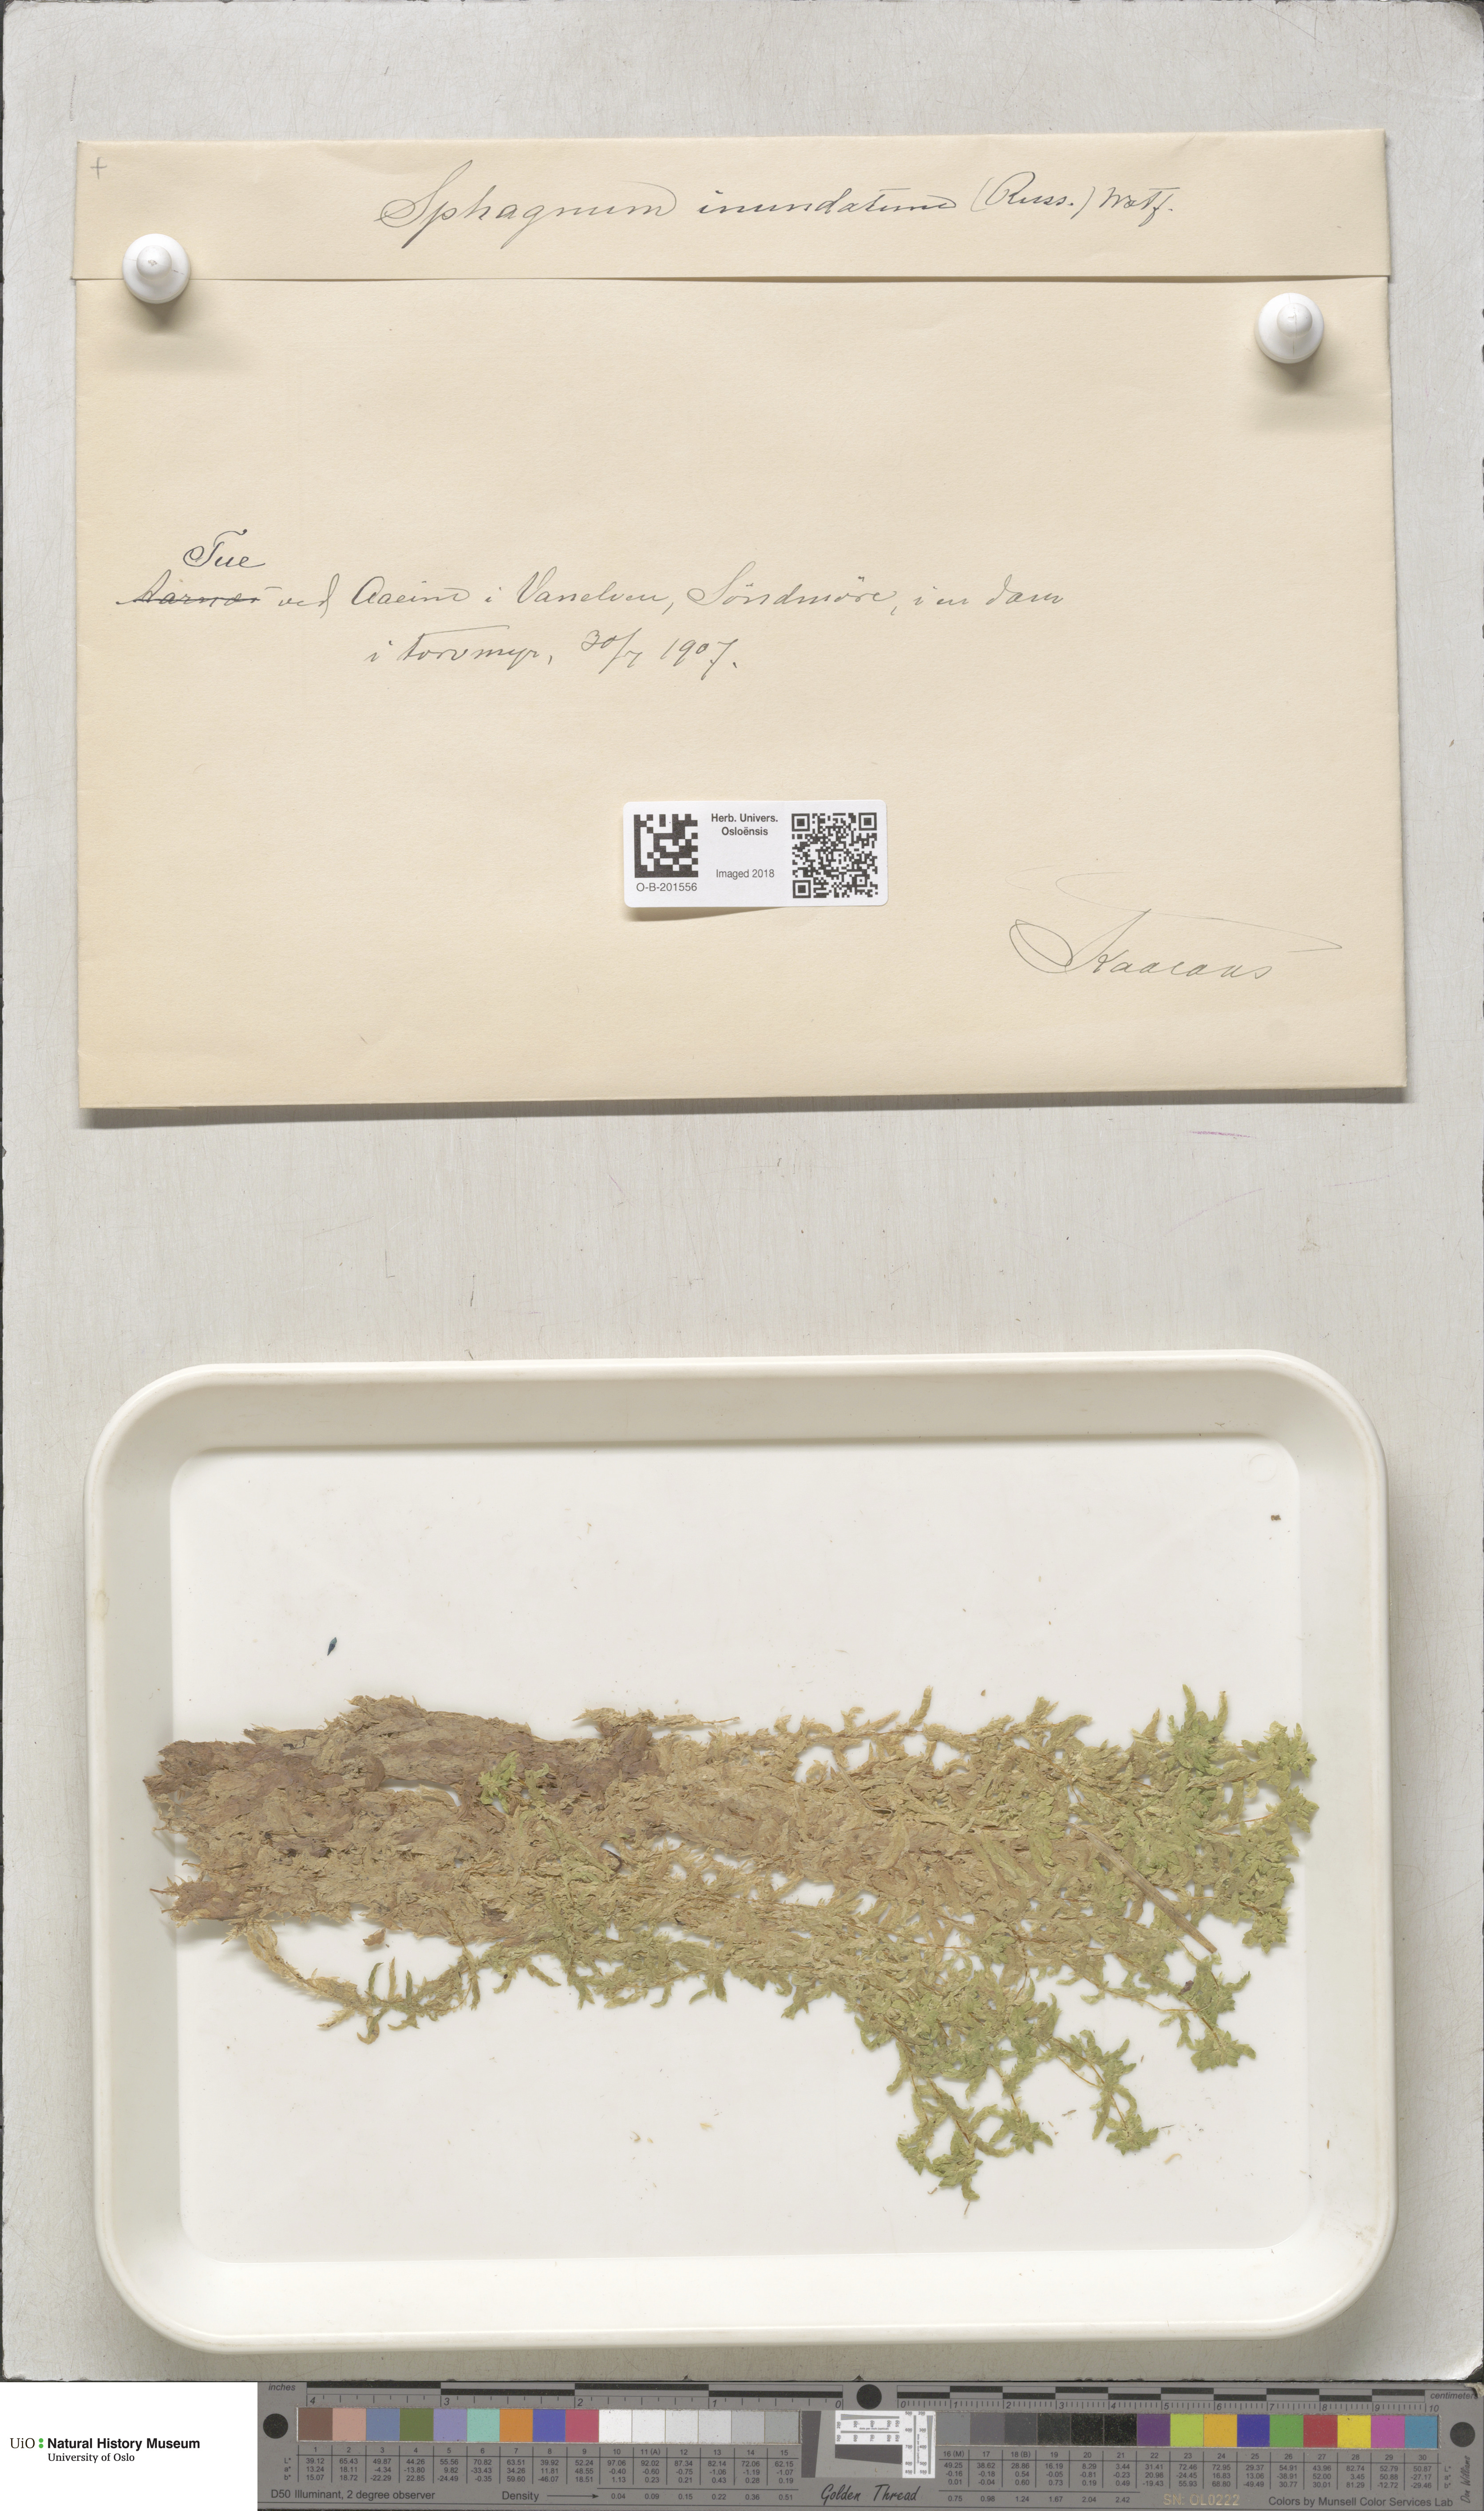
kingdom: Plantae
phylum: Bryophyta
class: Sphagnopsida
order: Sphagnales
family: Sphagnaceae
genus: Sphagnum
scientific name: Sphagnum inundatum
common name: Lesser cow-horn bog-moss
